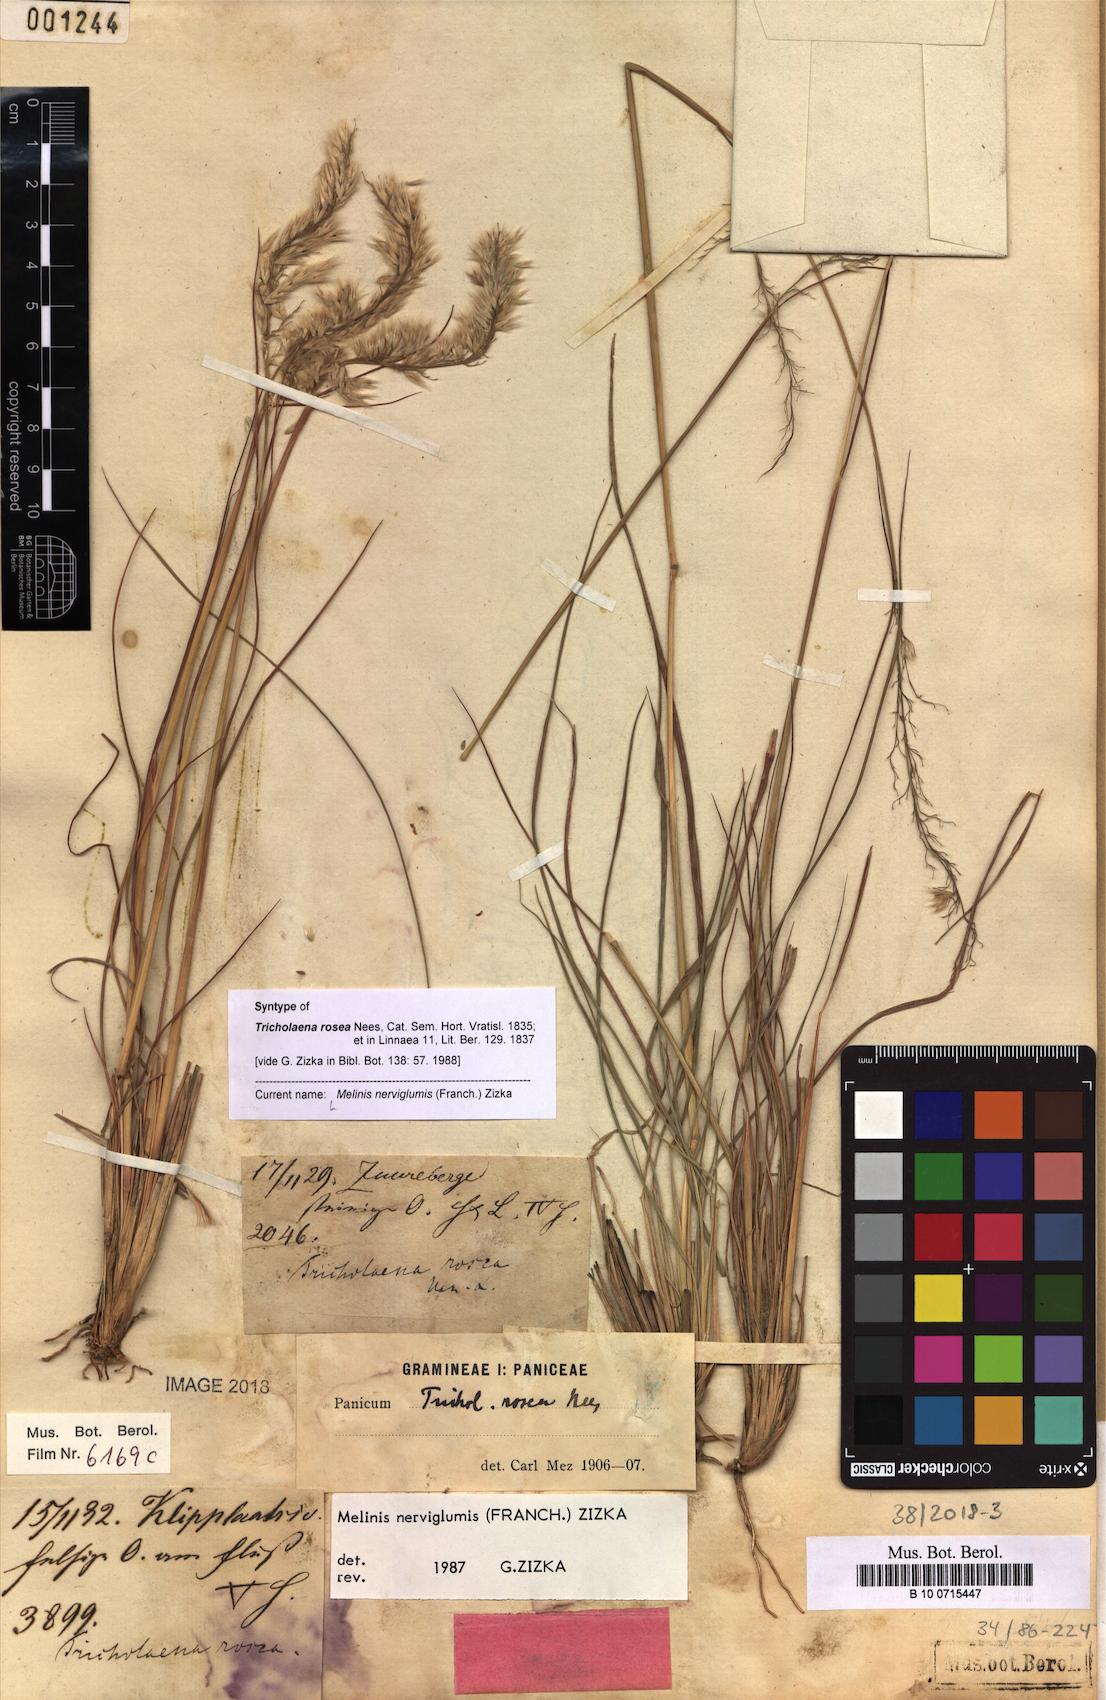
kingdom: Plantae
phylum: Tracheophyta
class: Liliopsida
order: Poales
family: Poaceae
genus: Melinis
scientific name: Melinis nerviglumis
